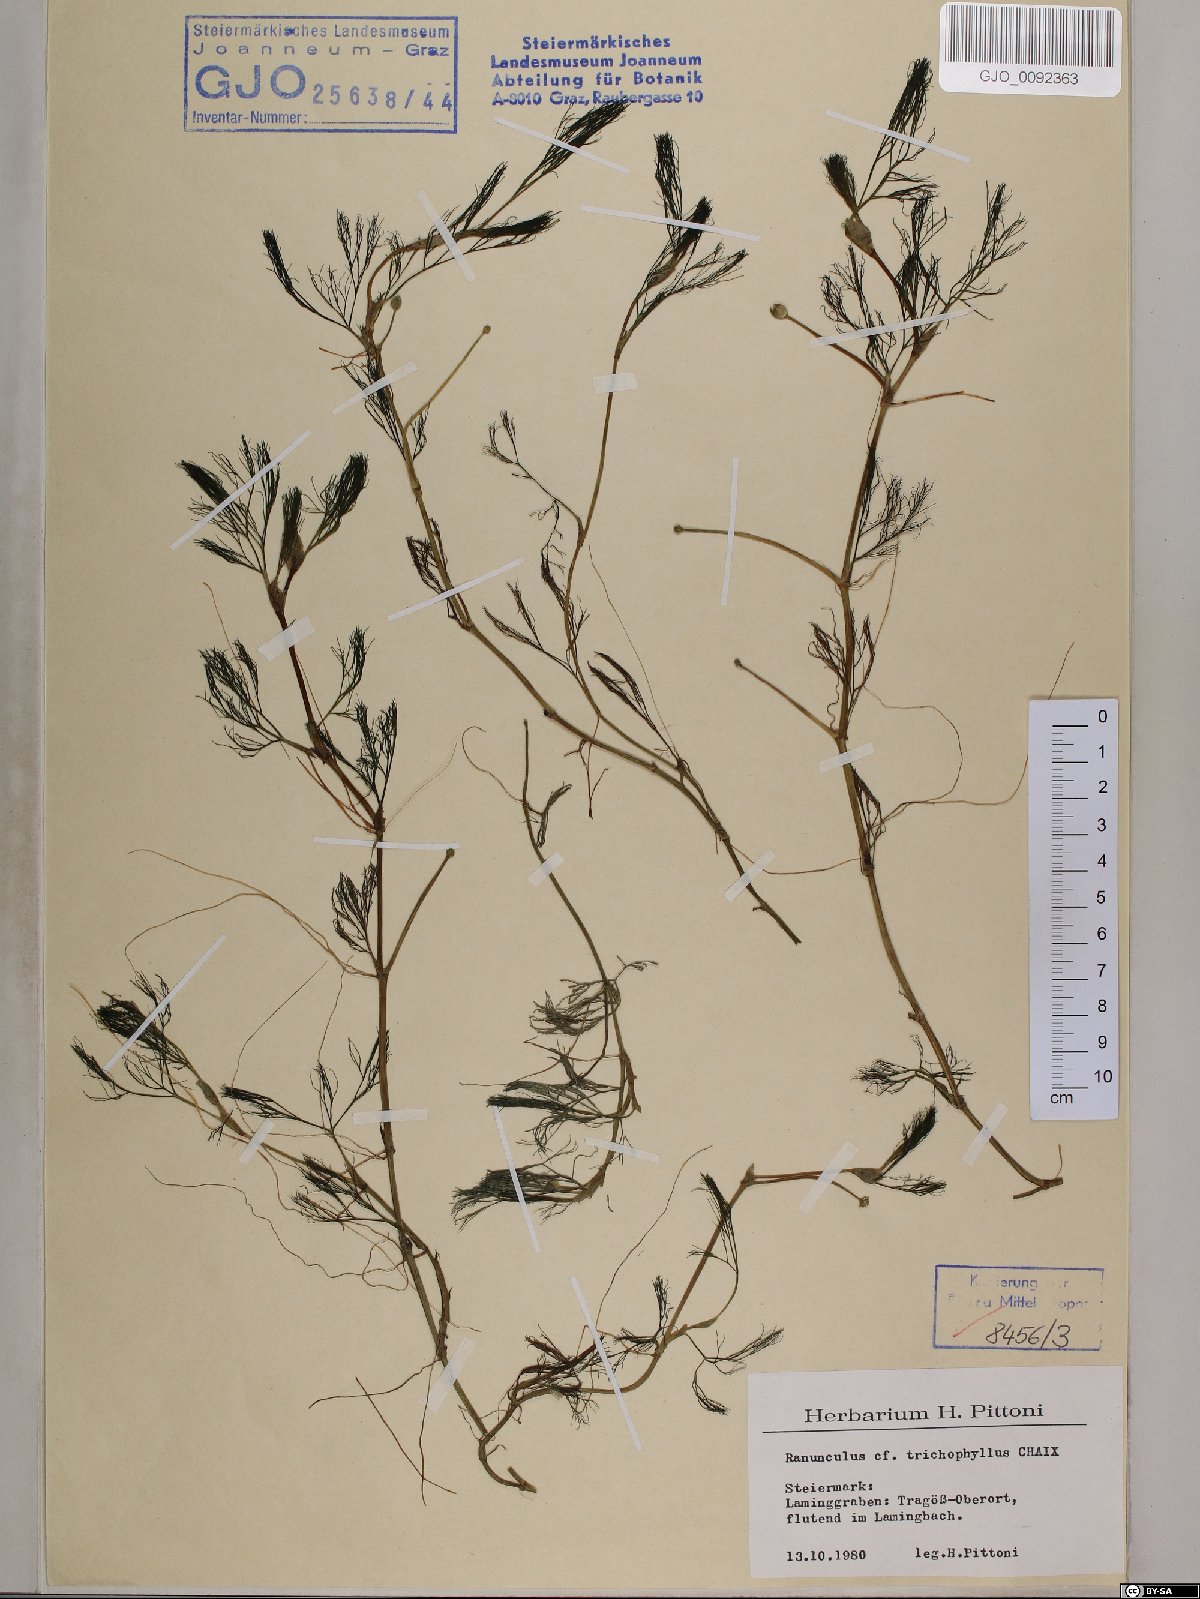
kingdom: Plantae
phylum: Tracheophyta
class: Magnoliopsida
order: Ranunculales
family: Ranunculaceae
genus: Ranunculus
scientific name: Ranunculus trichophyllus
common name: Thread-leaved water-crowfoot
